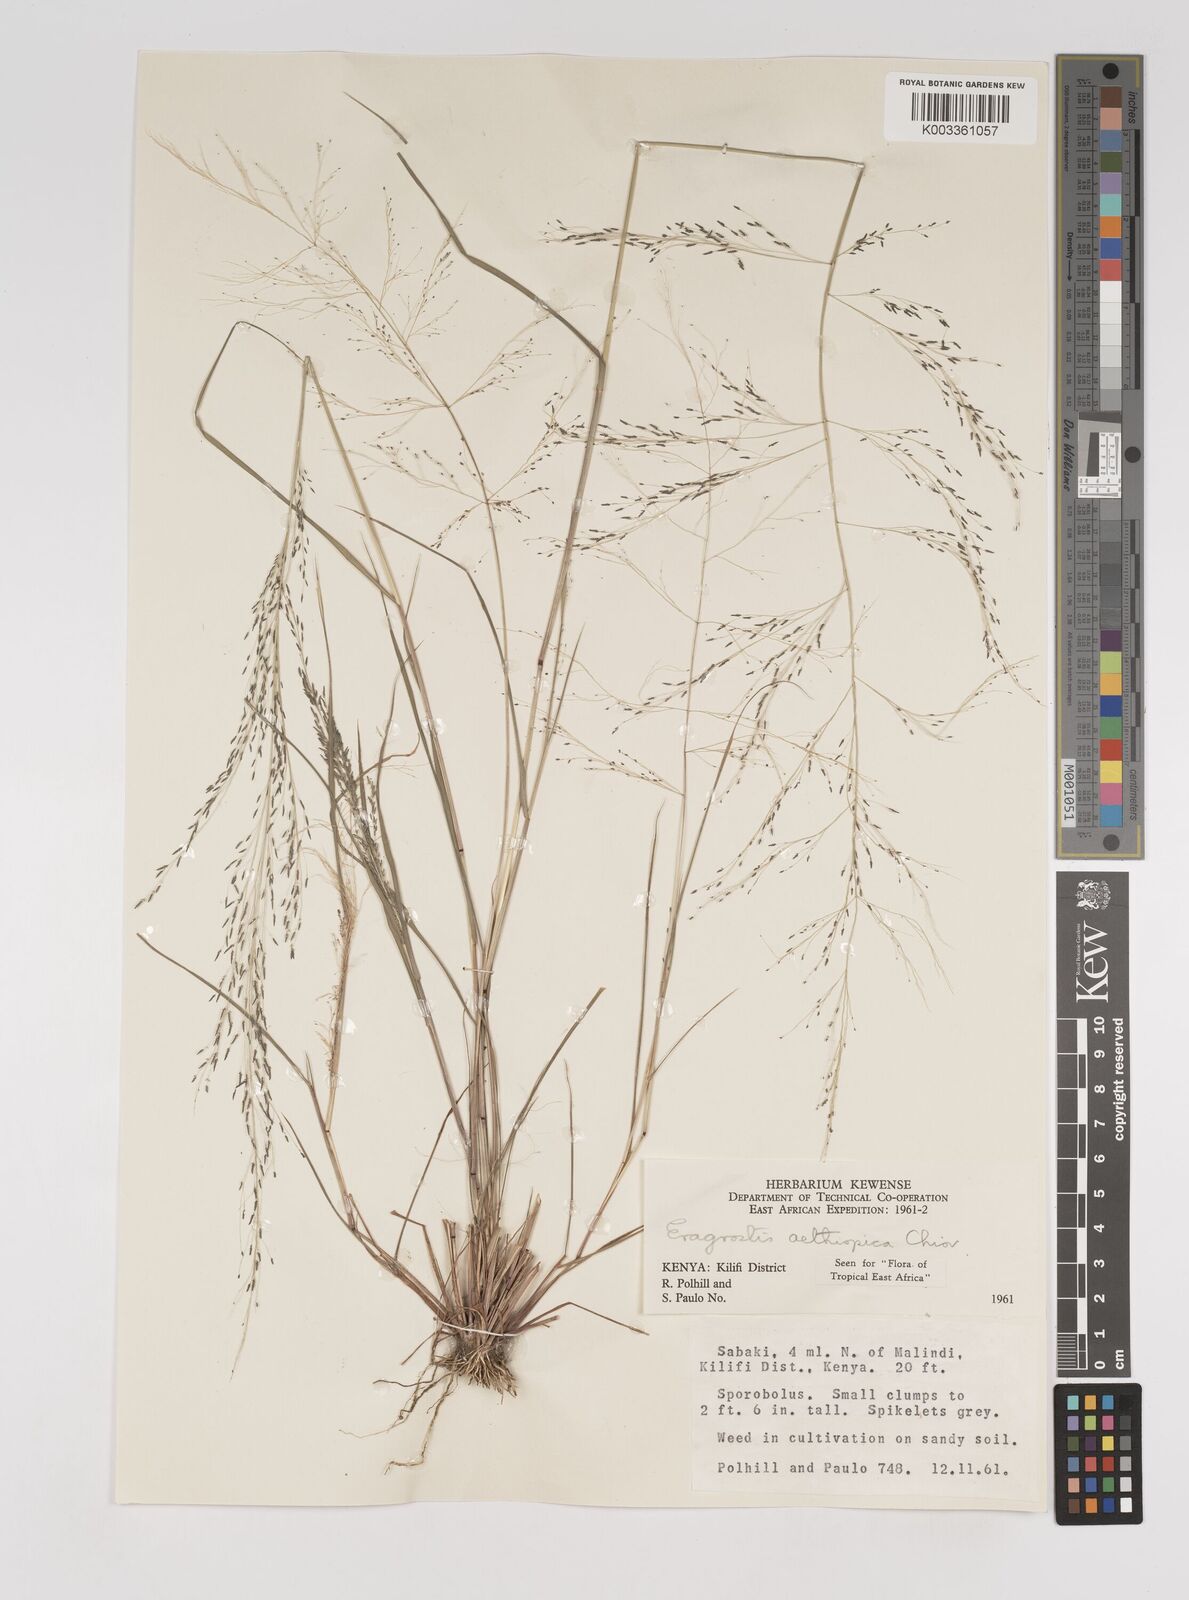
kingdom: Plantae
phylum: Tracheophyta
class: Liliopsida
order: Poales
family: Poaceae
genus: Eragrostis
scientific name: Eragrostis aethiopica
